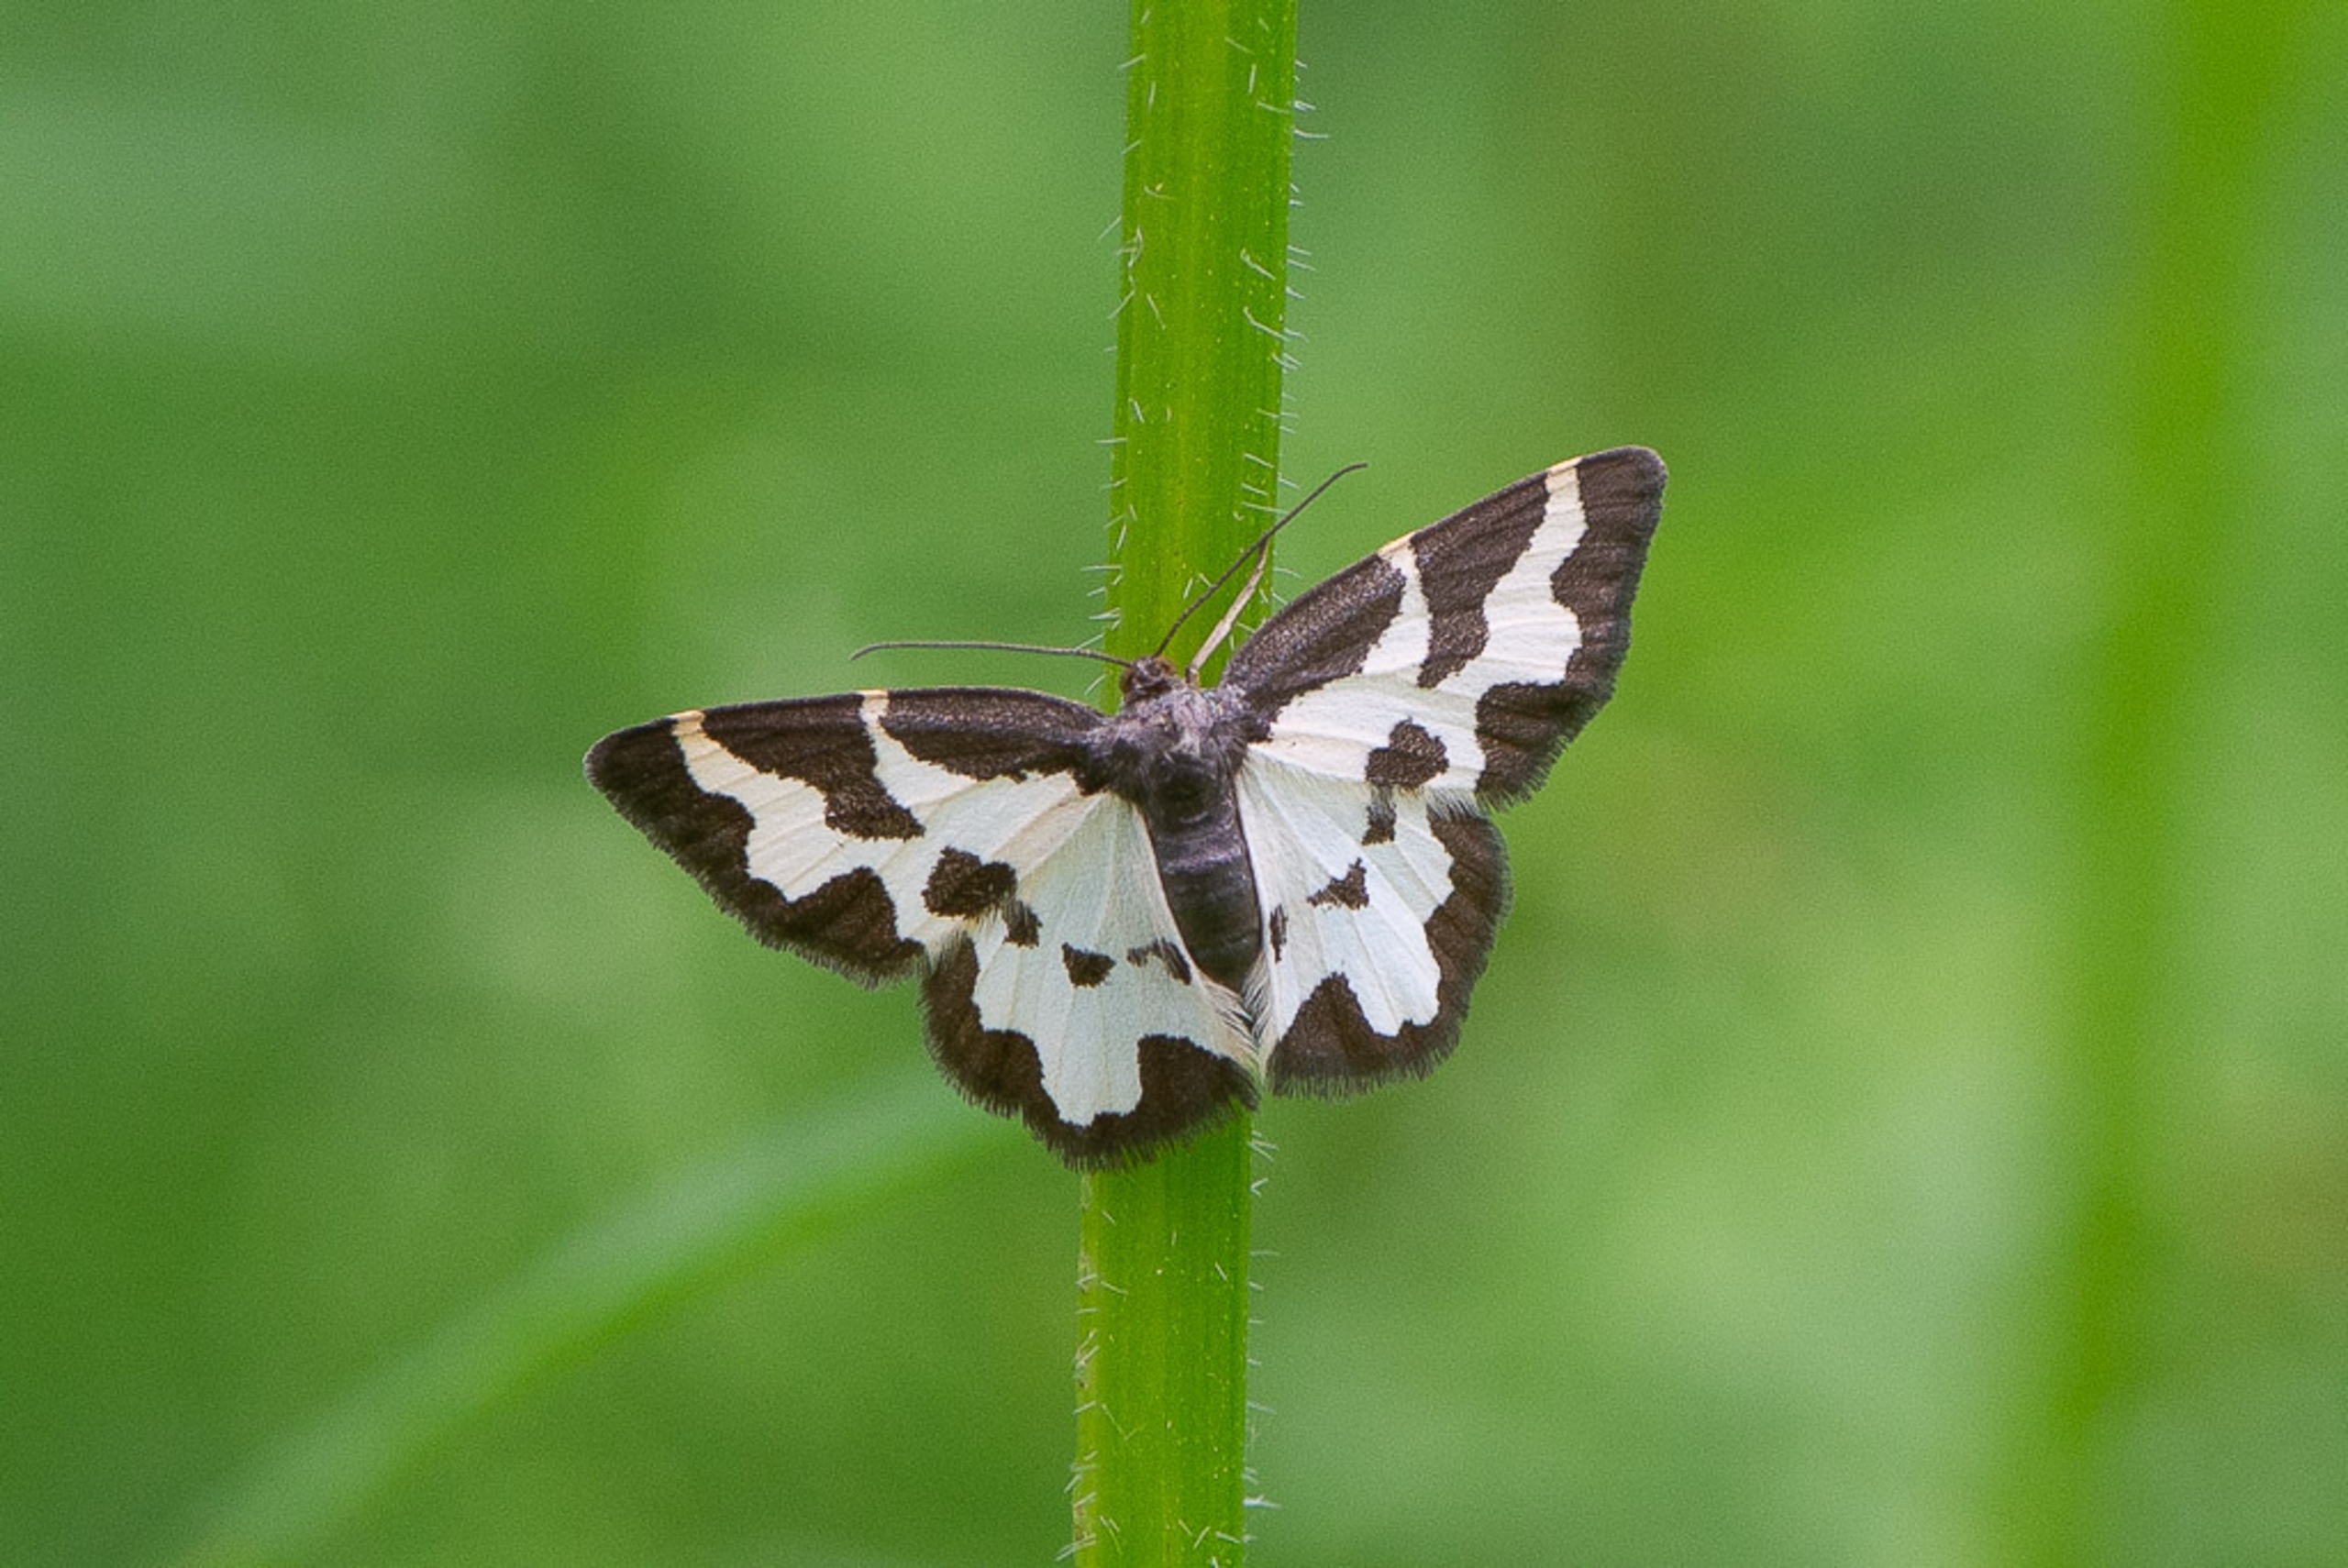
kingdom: Animalia
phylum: Arthropoda
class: Insecta
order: Lepidoptera
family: Geometridae
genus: Lomaspilis
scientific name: Lomaspilis marginata
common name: Sortrandet måler
